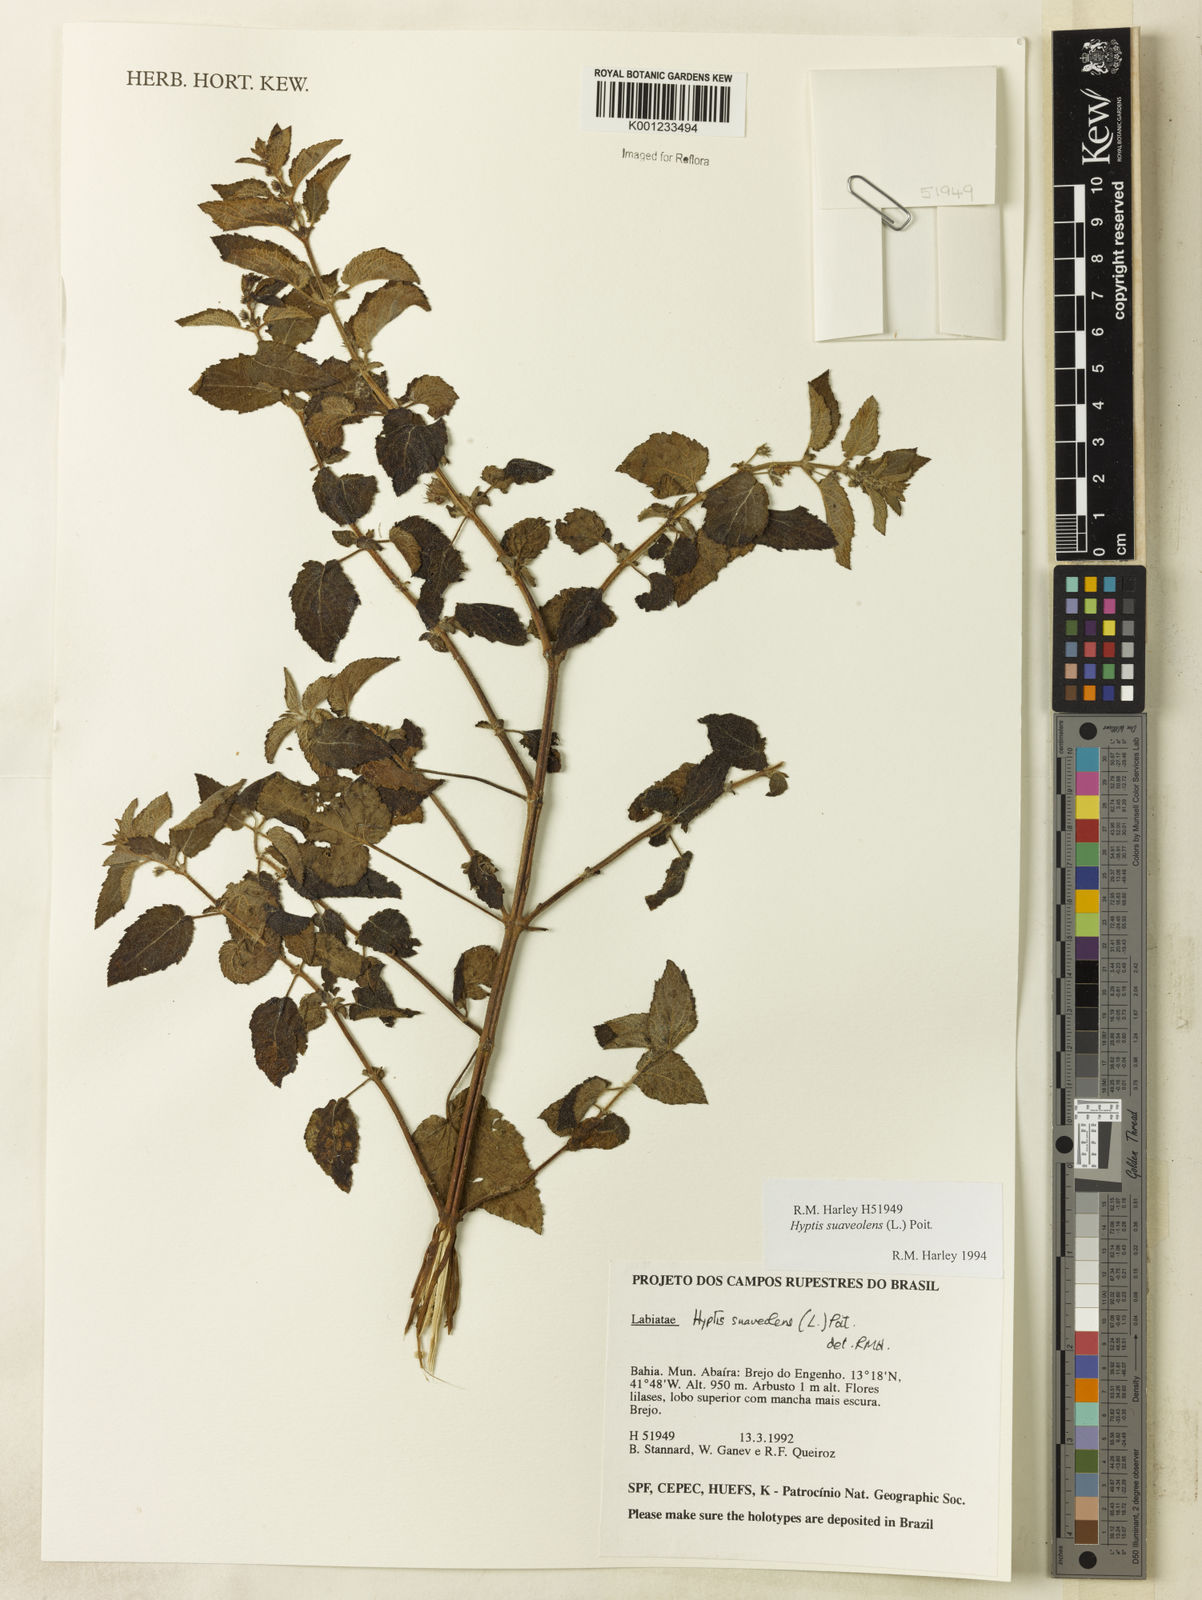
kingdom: Plantae
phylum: Tracheophyta
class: Magnoliopsida
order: Lamiales
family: Lamiaceae
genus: Mesosphaerum
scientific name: Mesosphaerum suaveolens
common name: Pignut
